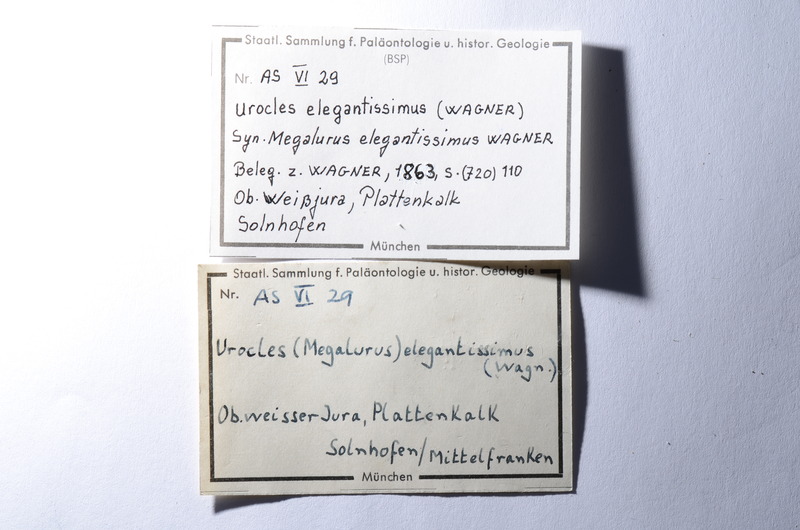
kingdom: Animalia
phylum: Chordata
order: Amiiformes
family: Amiidae
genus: Solnhofenamia
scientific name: Solnhofenamia elongata
